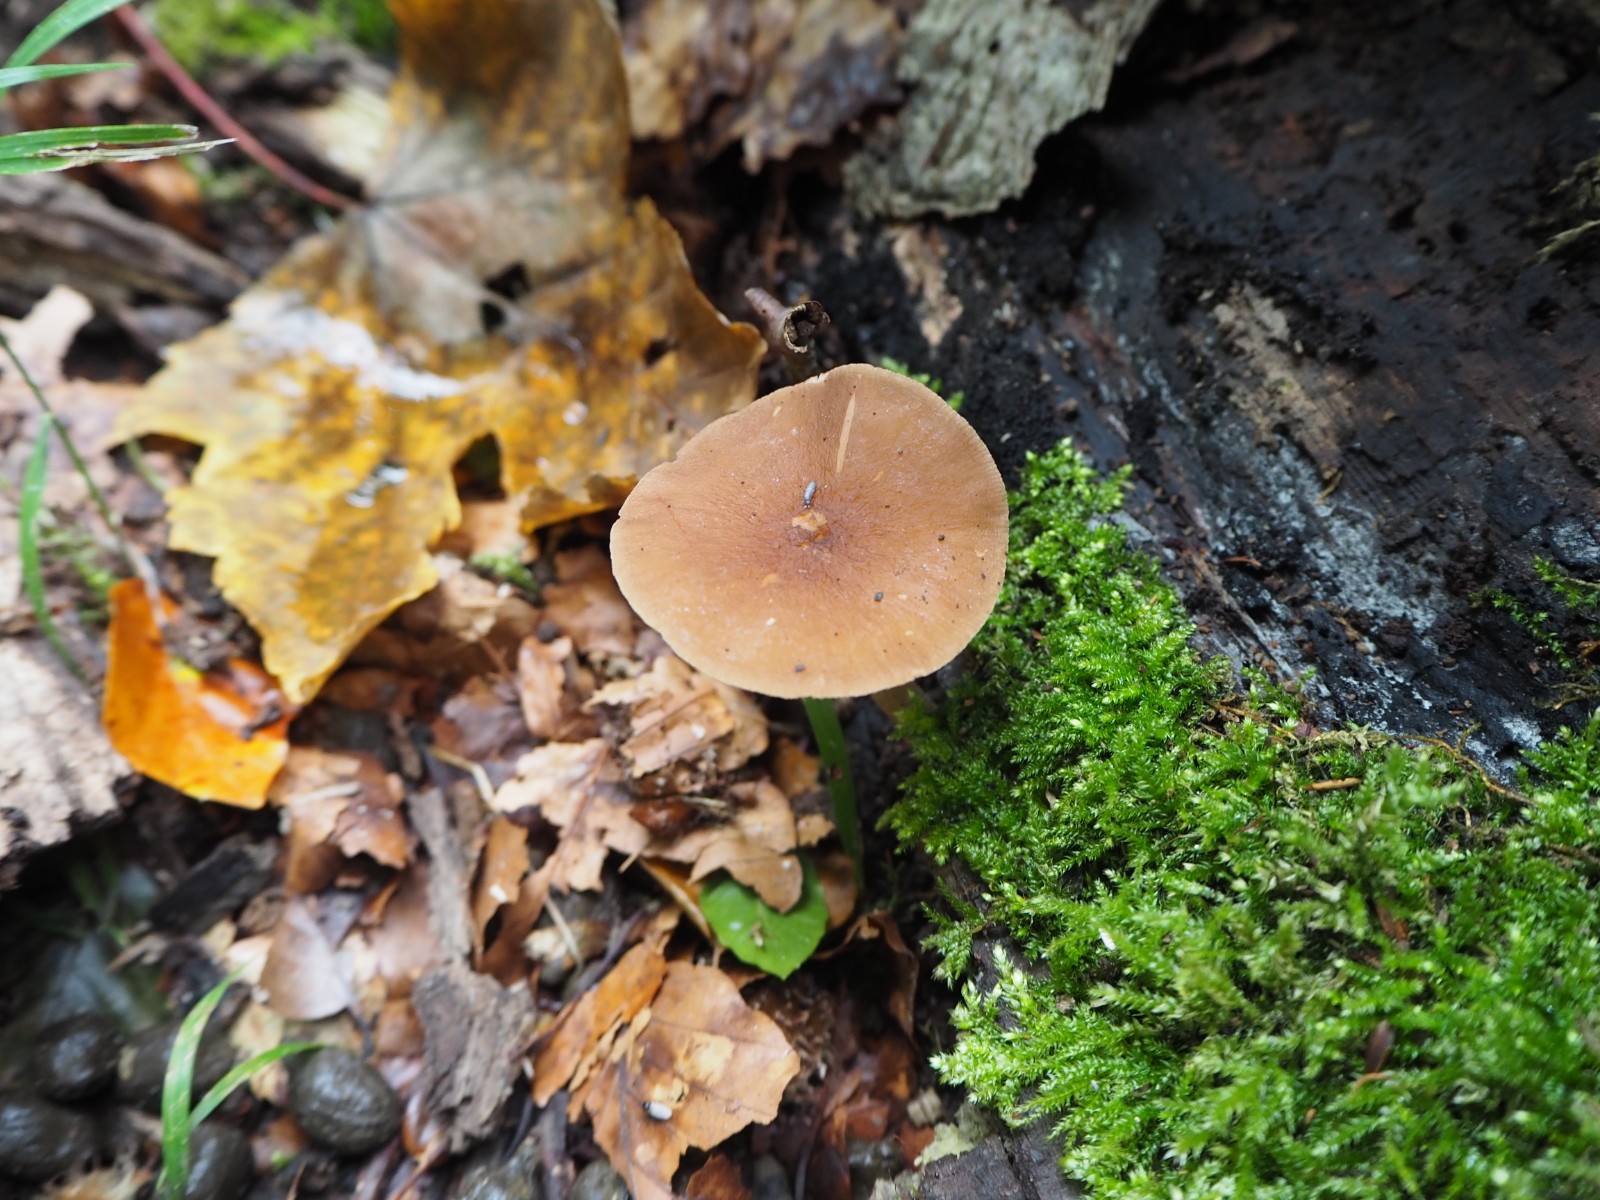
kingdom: Fungi
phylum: Basidiomycota
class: Agaricomycetes
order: Agaricales
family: Pluteaceae
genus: Pluteus
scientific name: Pluteus phlebophorus
